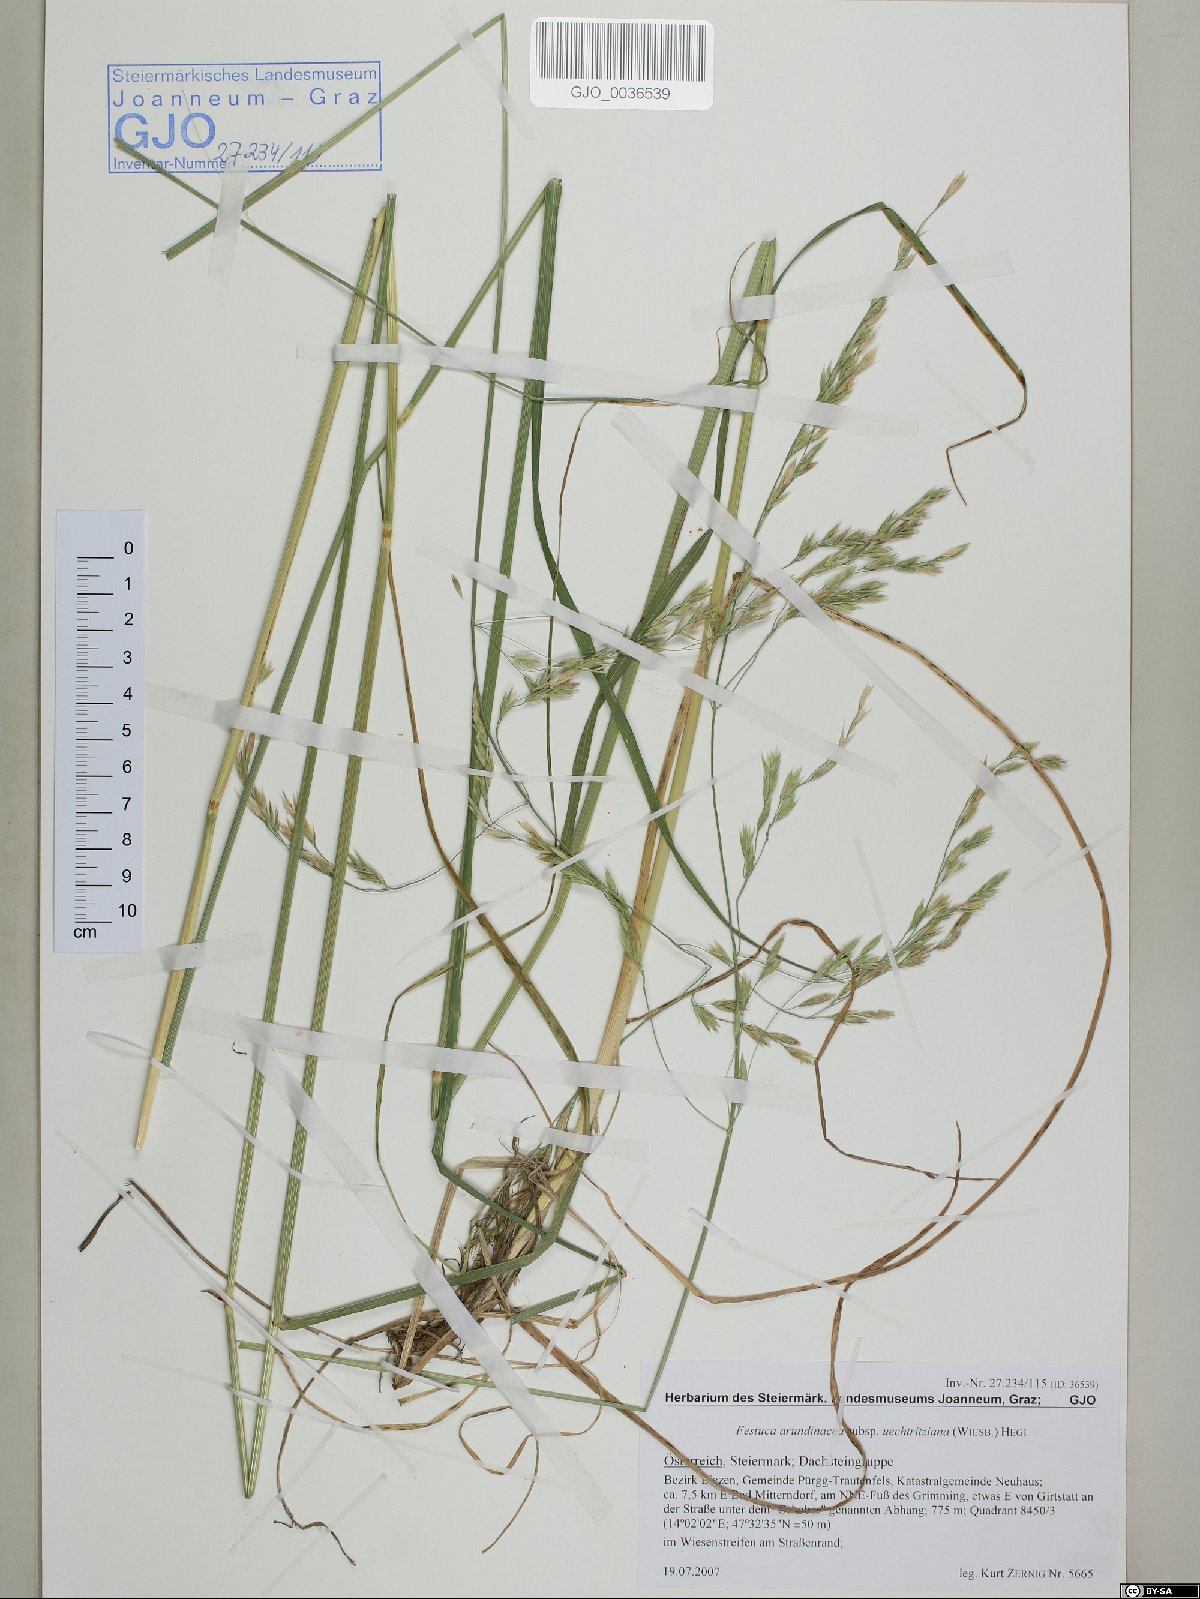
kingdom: Plantae
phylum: Tracheophyta
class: Liliopsida
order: Poales
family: Poaceae
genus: Lolium
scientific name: Lolium arundinaceum
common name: Reed fescue
